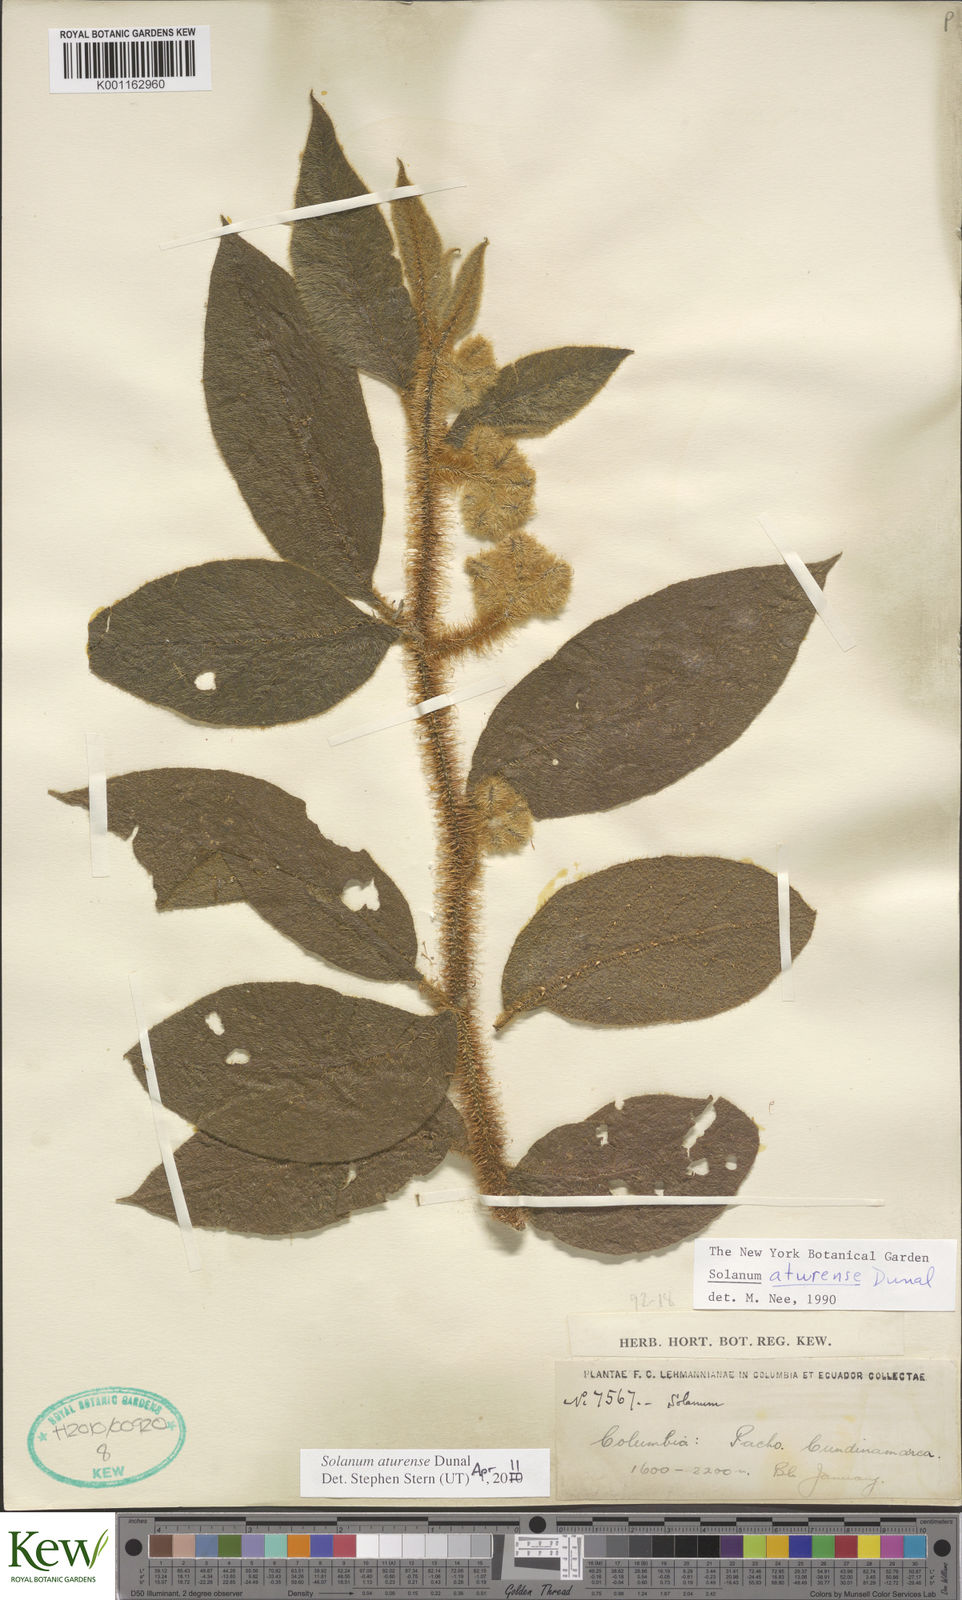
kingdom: Plantae
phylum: Tracheophyta
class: Magnoliopsida
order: Solanales
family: Solanaceae
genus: Solanum
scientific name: Solanum aturense
